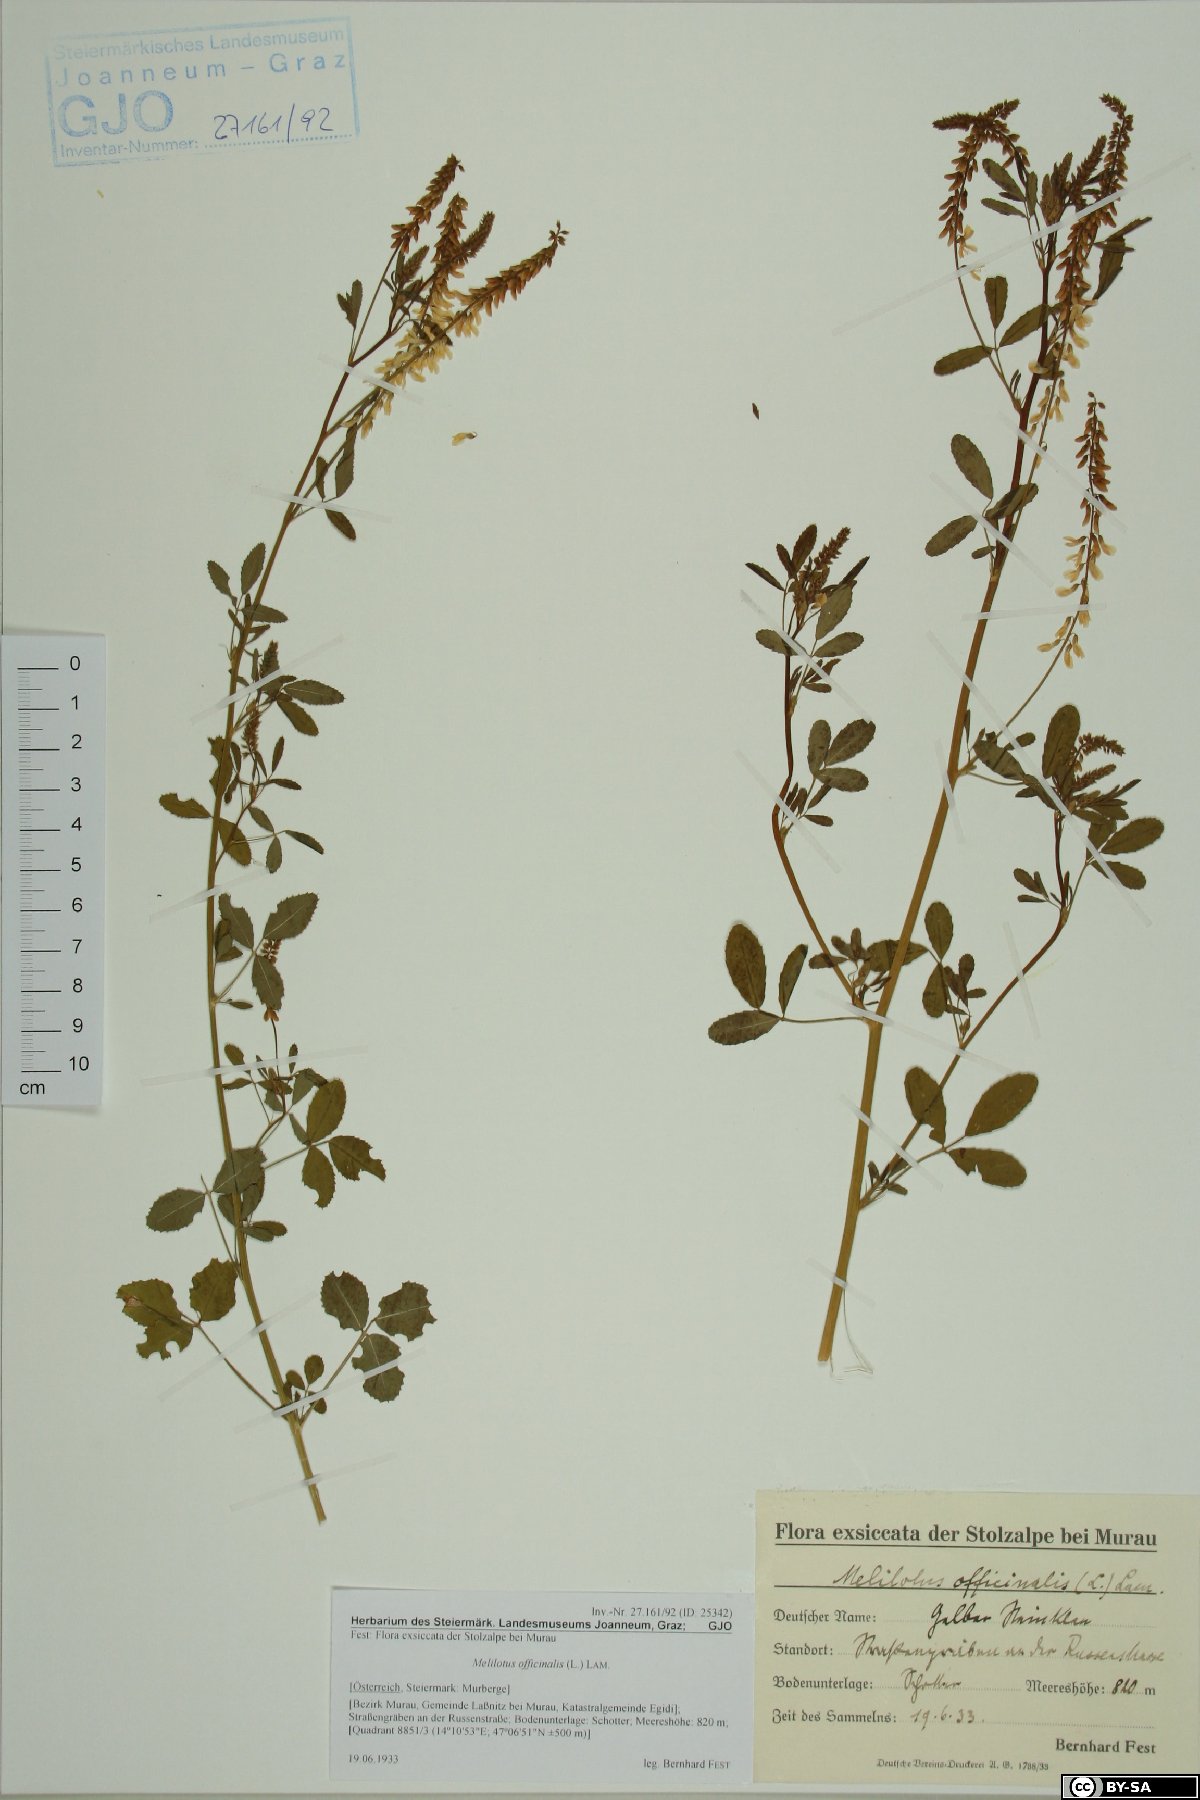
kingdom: Plantae
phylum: Tracheophyta
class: Magnoliopsida
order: Fabales
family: Fabaceae
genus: Melilotus
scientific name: Melilotus officinalis
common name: Sweetclover
